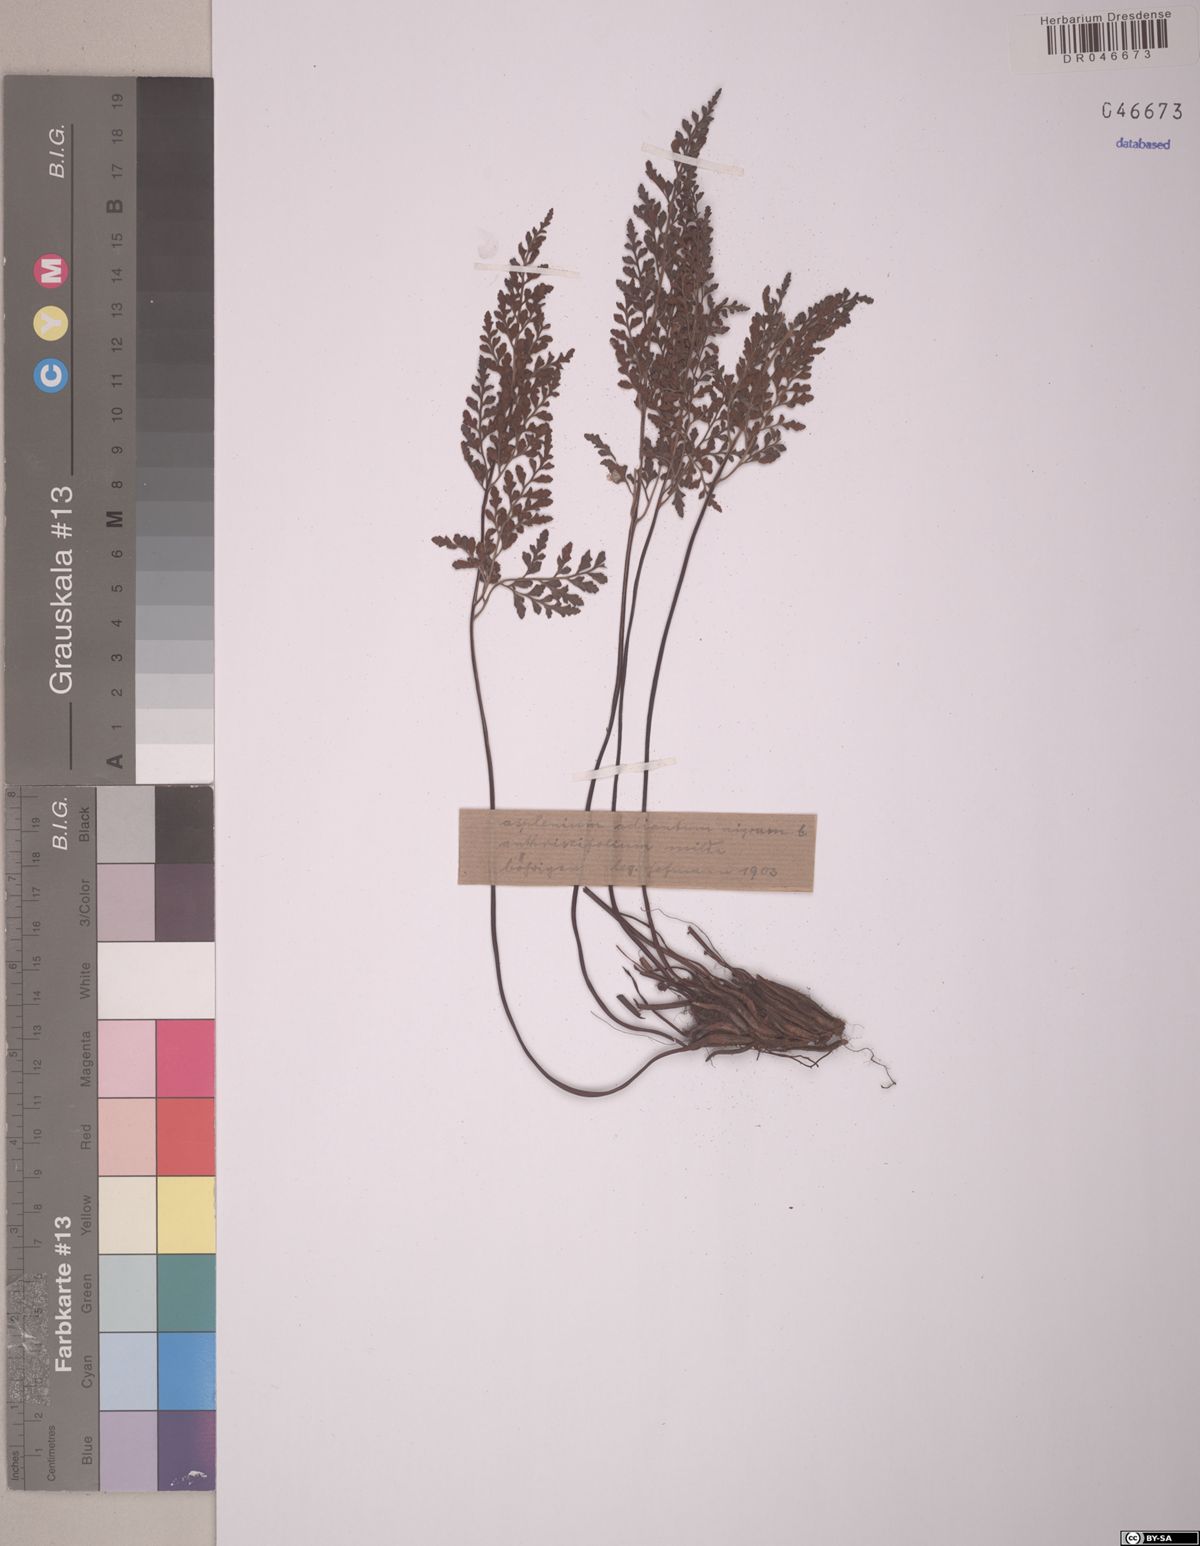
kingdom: Plantae
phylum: Tracheophyta
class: Polypodiopsida
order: Polypodiales
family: Aspleniaceae
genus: Asplenium
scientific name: Asplenium adiantum-nigrum
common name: Black spleenwort
